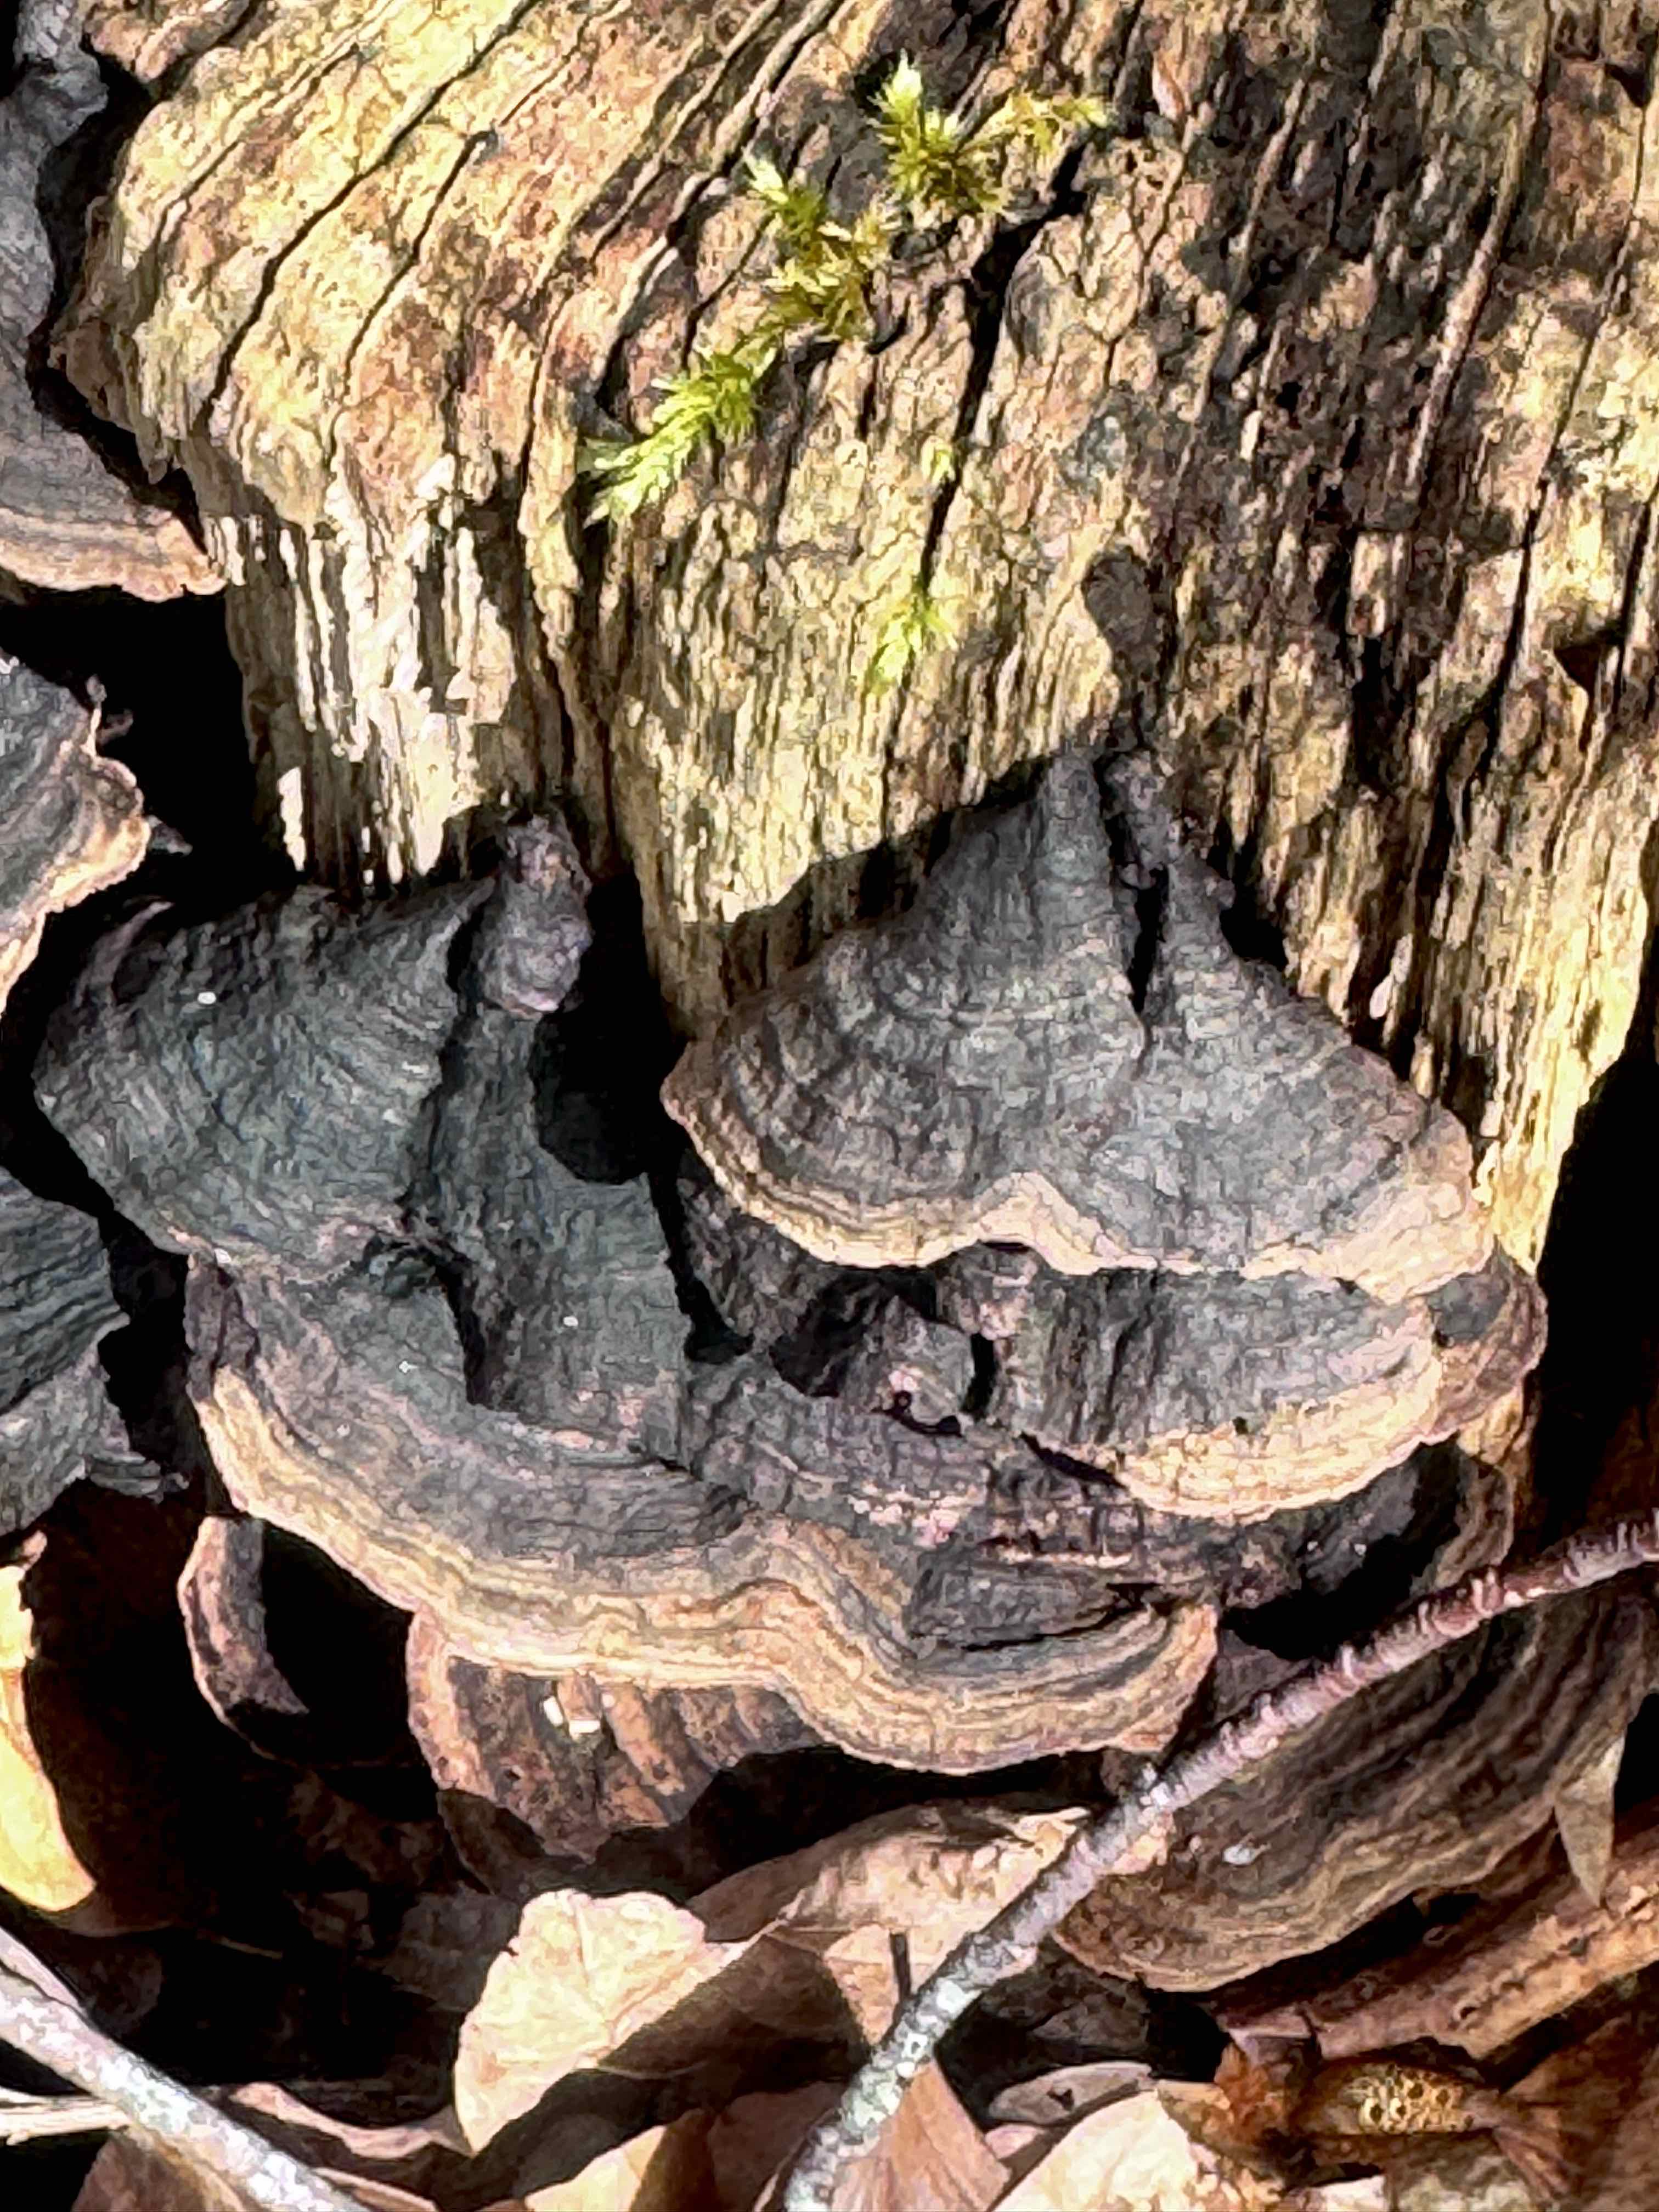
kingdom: Fungi
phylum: Basidiomycota
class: Agaricomycetes
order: Hymenochaetales
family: Hymenochaetaceae
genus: Hymenochaete
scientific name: Hymenochaete rubiginosa
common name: stiv ruslædersvamp
